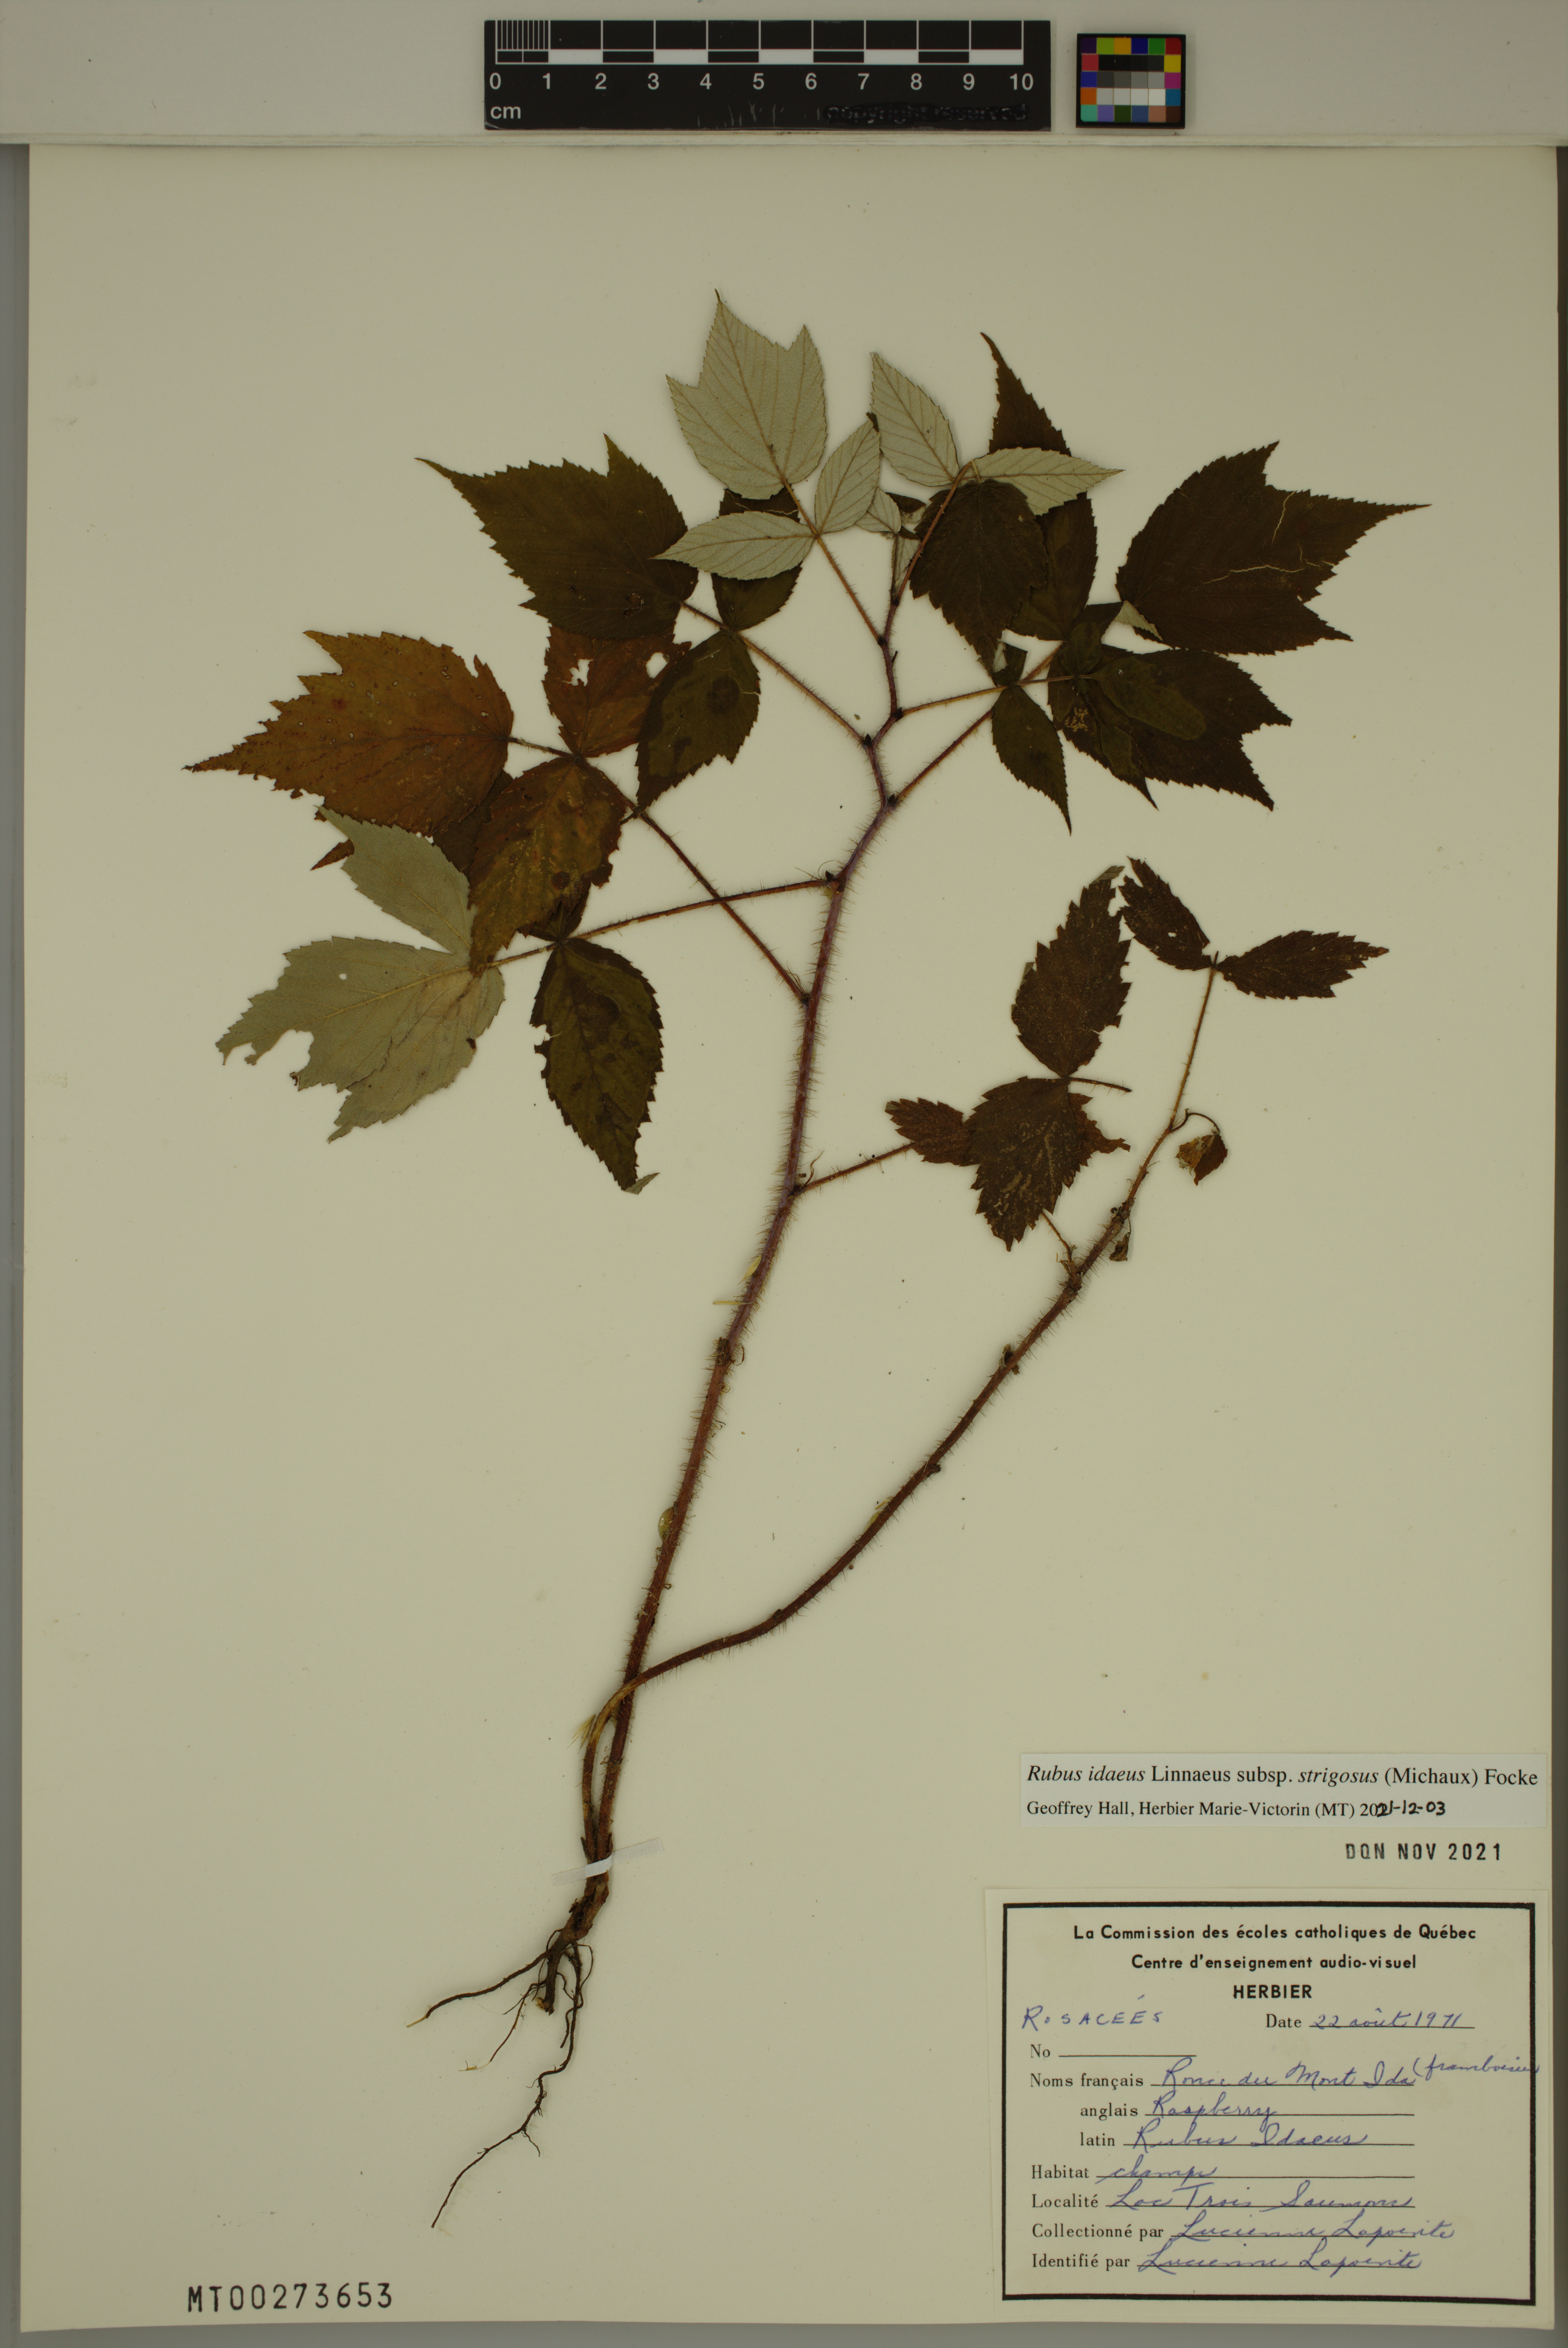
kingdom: Plantae
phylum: Tracheophyta
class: Magnoliopsida
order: Rosales
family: Rosaceae
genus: Rubus
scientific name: Rubus sachalinensis
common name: Red raspberry
